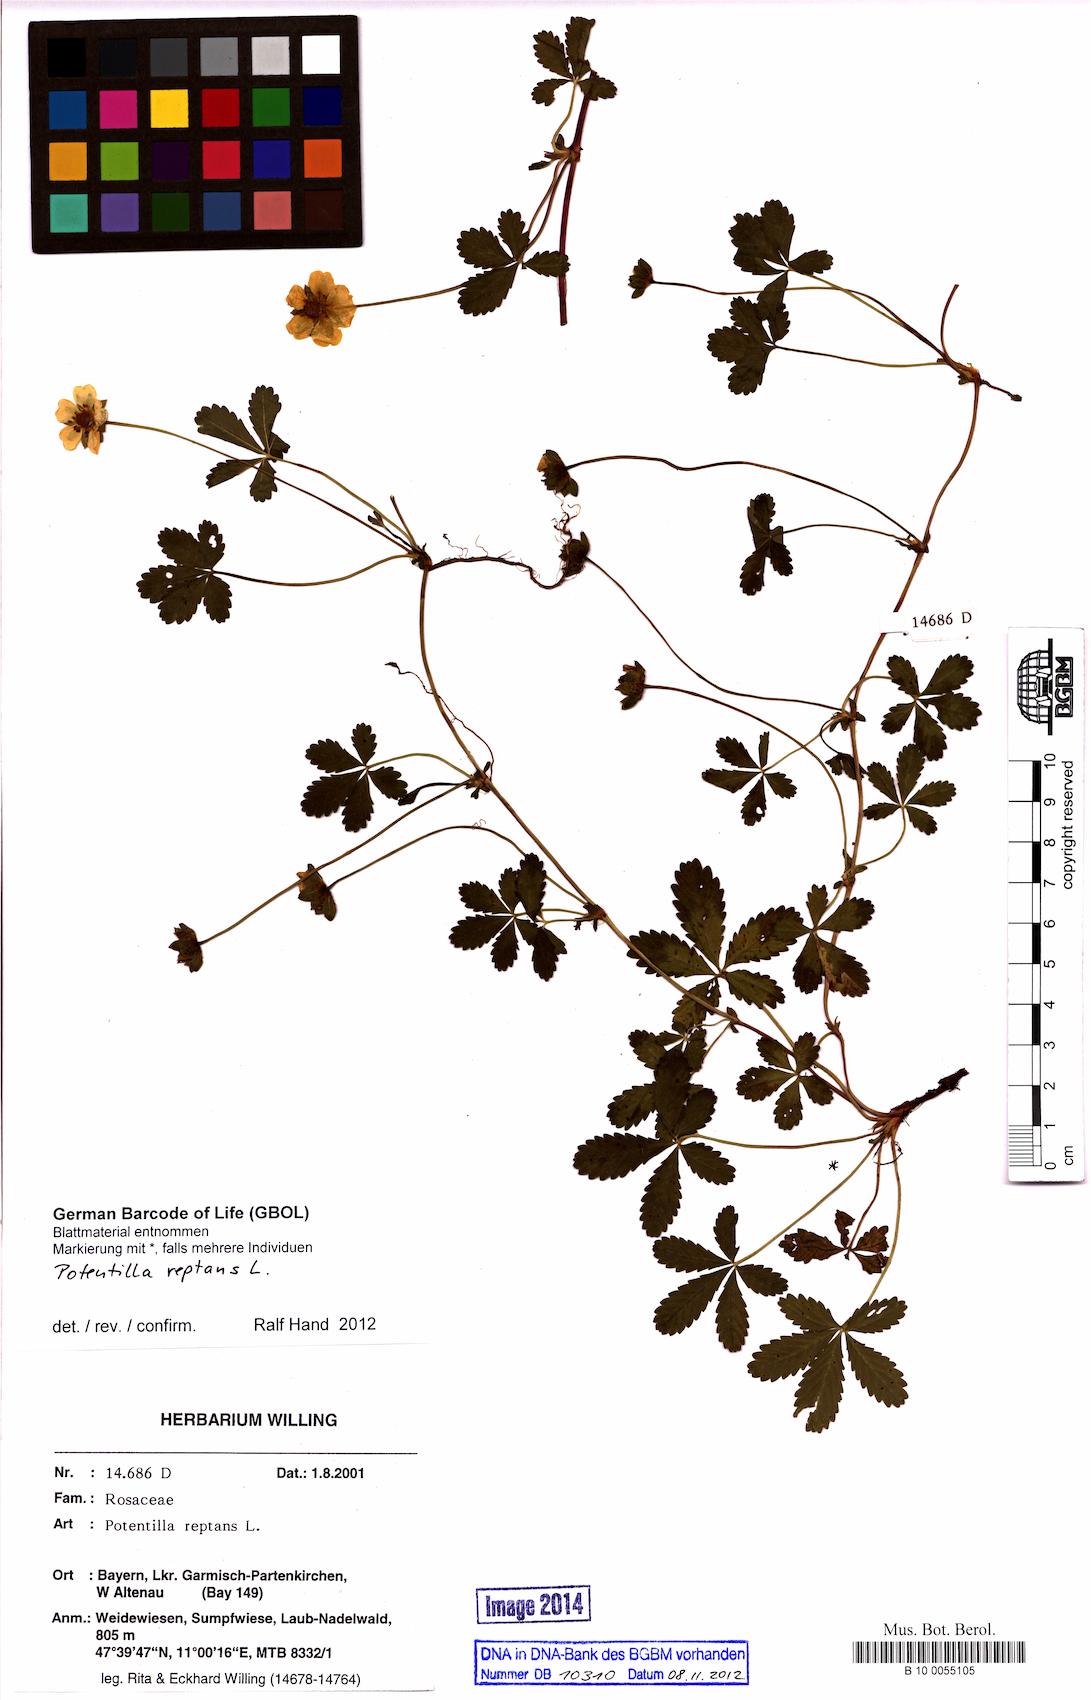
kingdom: Plantae
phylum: Tracheophyta
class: Magnoliopsida
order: Rosales
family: Rosaceae
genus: Potentilla
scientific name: Potentilla reptans
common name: Creeping cinquefoil
